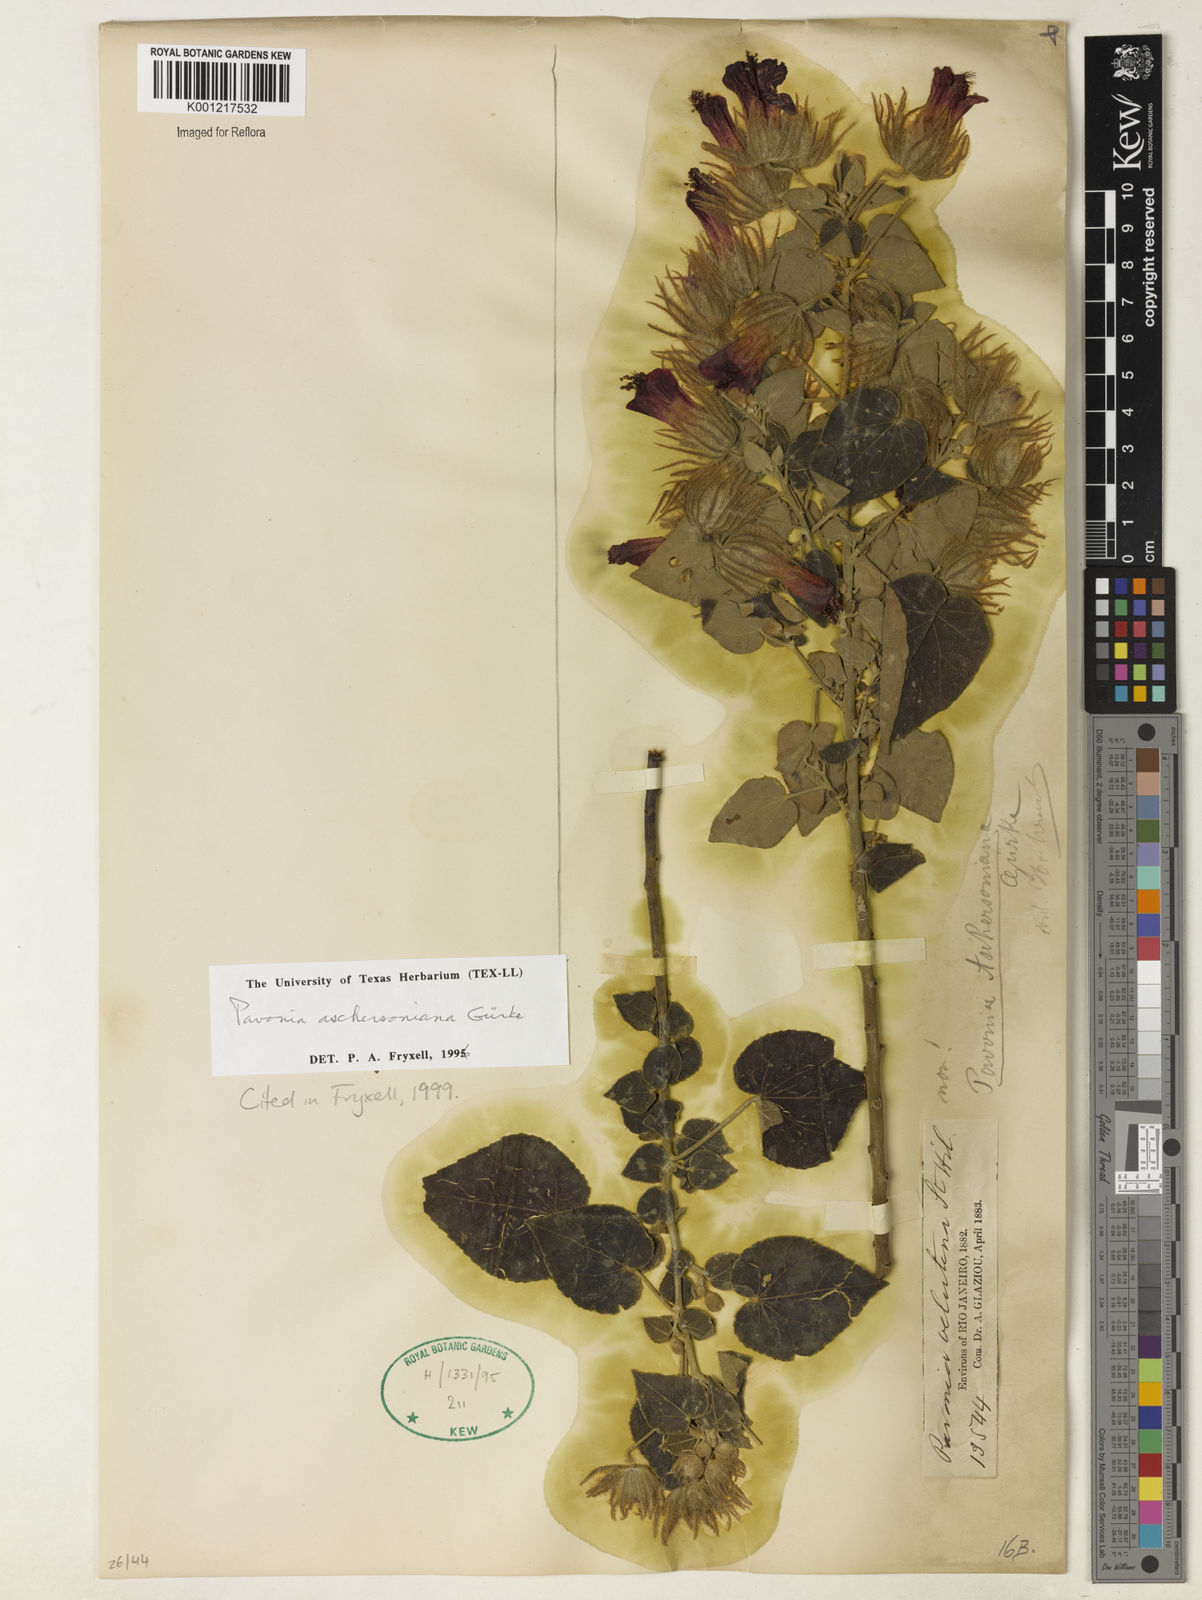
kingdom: Plantae
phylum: Tracheophyta
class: Magnoliopsida
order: Malvales
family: Malvaceae
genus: Pavonia
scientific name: Pavonia
